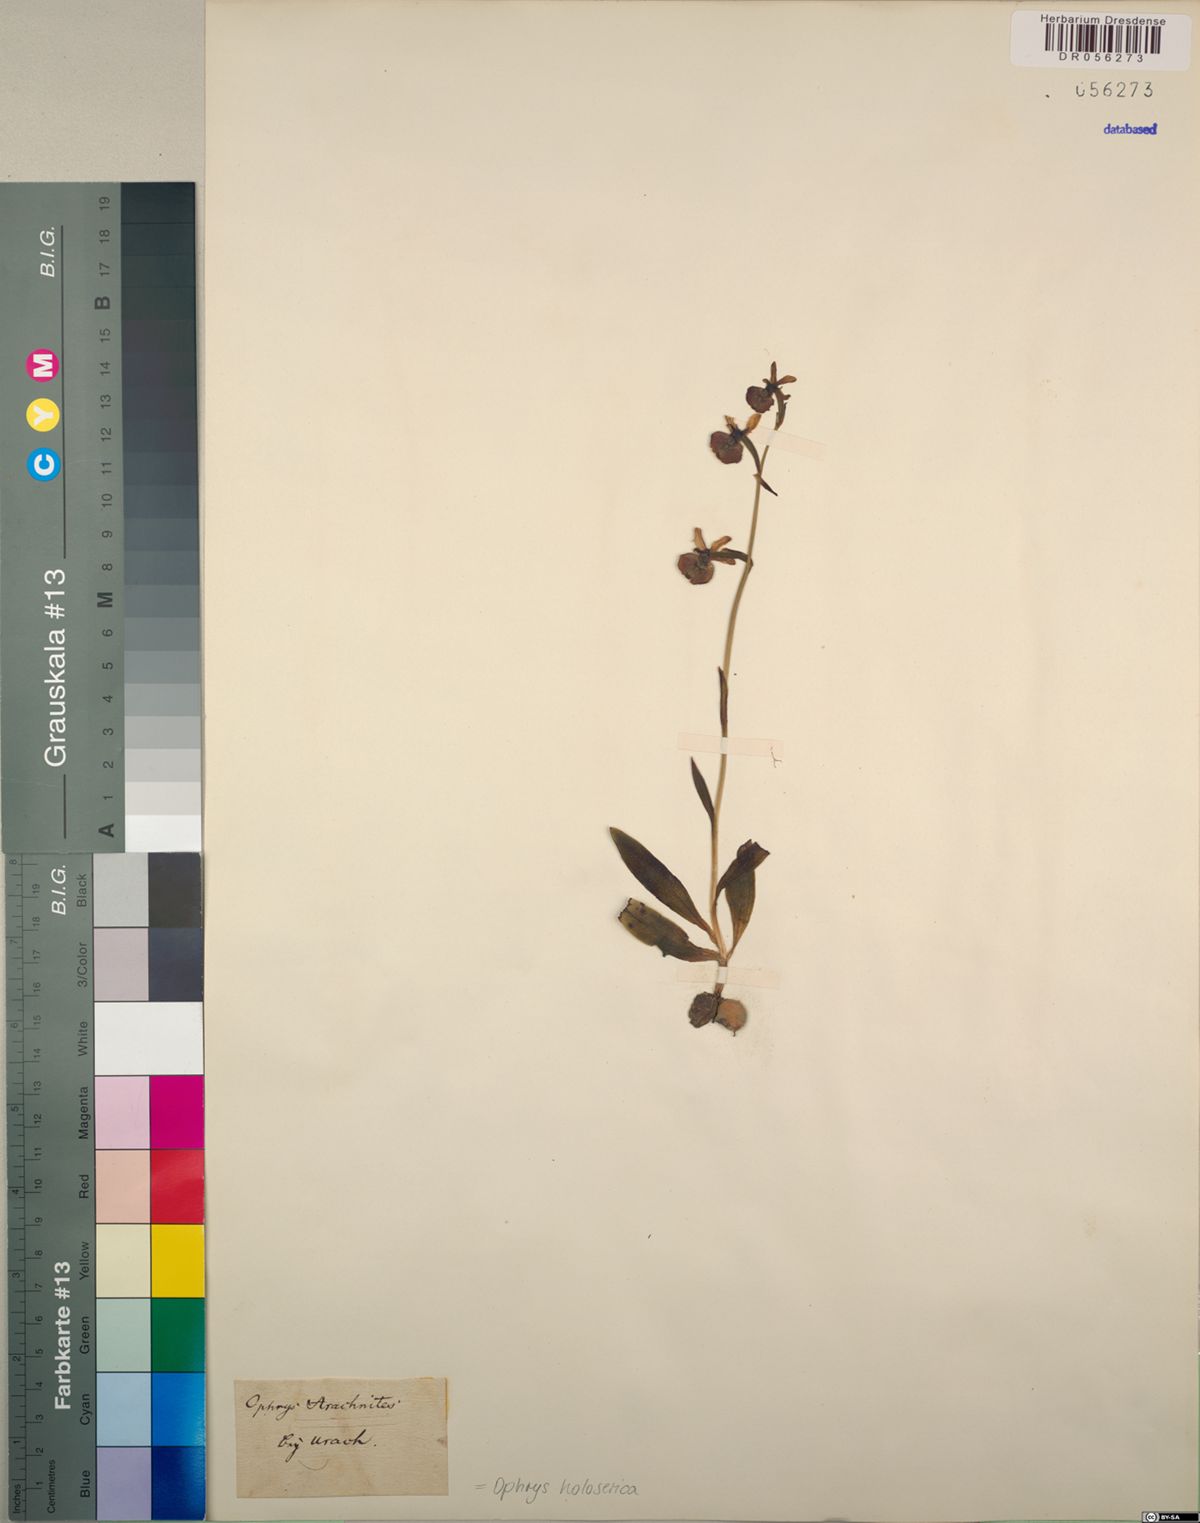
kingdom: Plantae
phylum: Tracheophyta
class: Liliopsida
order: Asparagales
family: Orchidaceae
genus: Ophrys
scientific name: Ophrys holosericea
